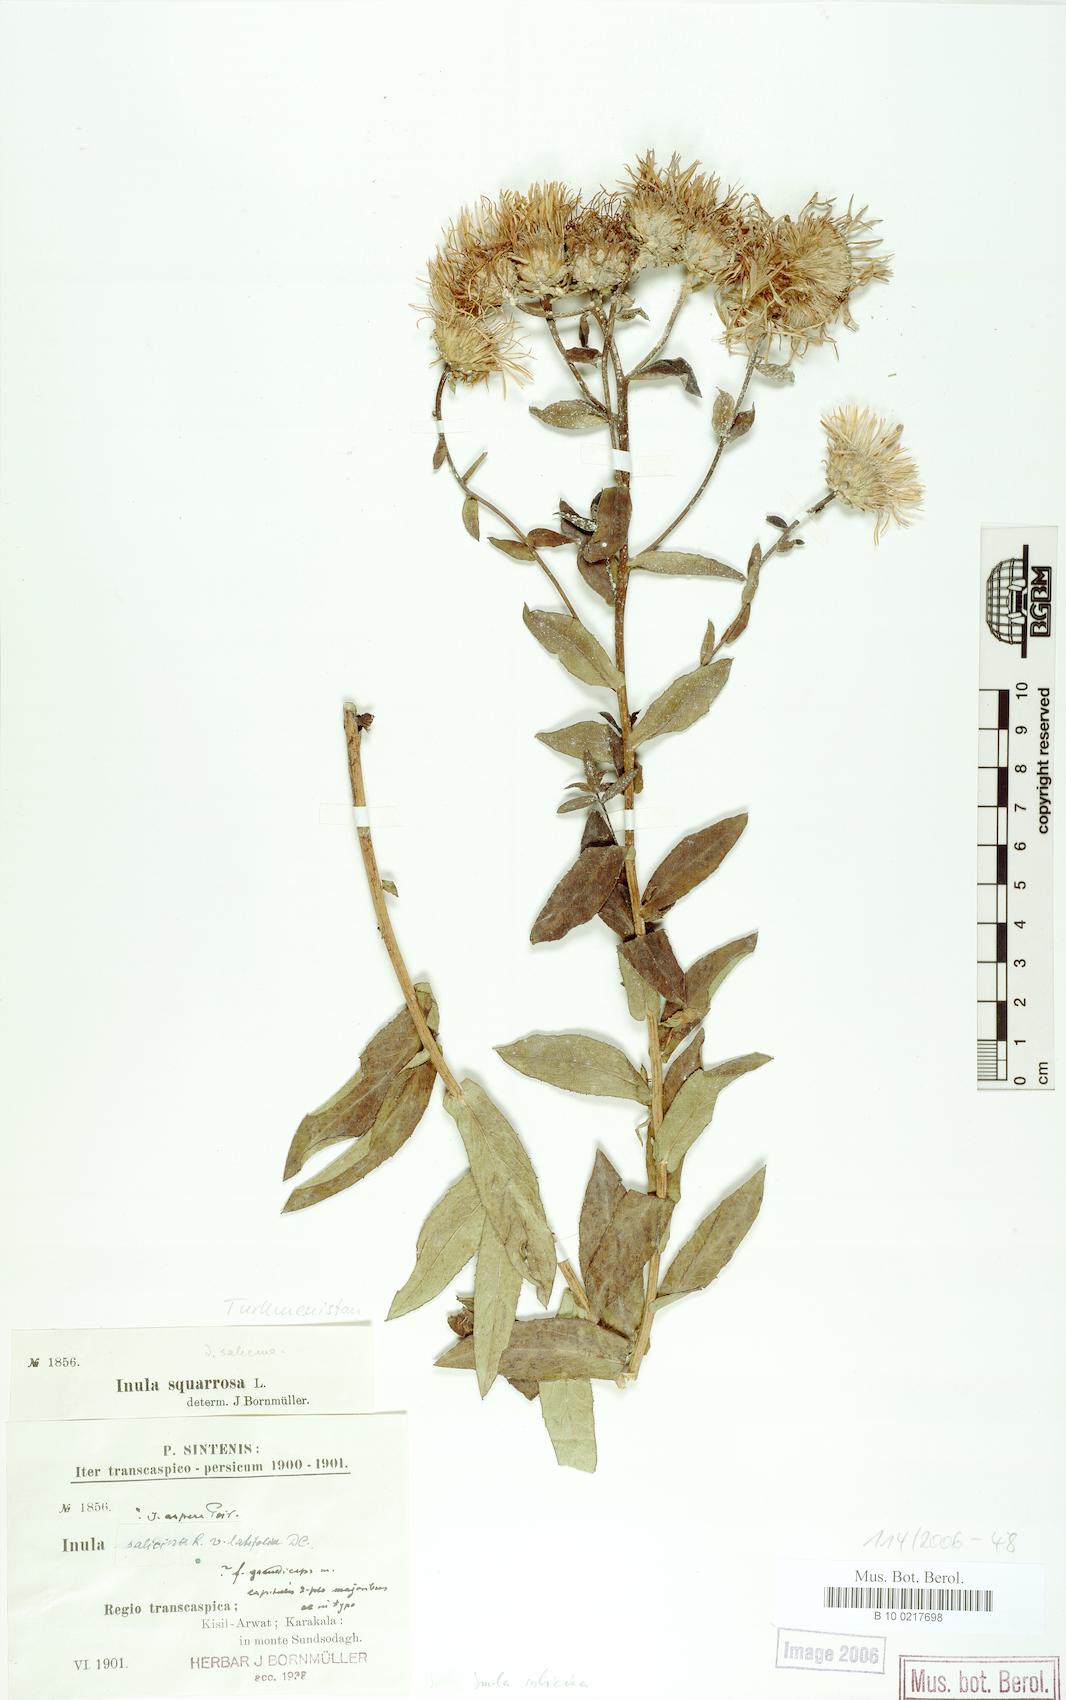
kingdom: Plantae
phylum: Tracheophyta
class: Magnoliopsida
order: Asterales
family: Asteraceae
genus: Pentanema
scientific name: Pentanema salicinum
